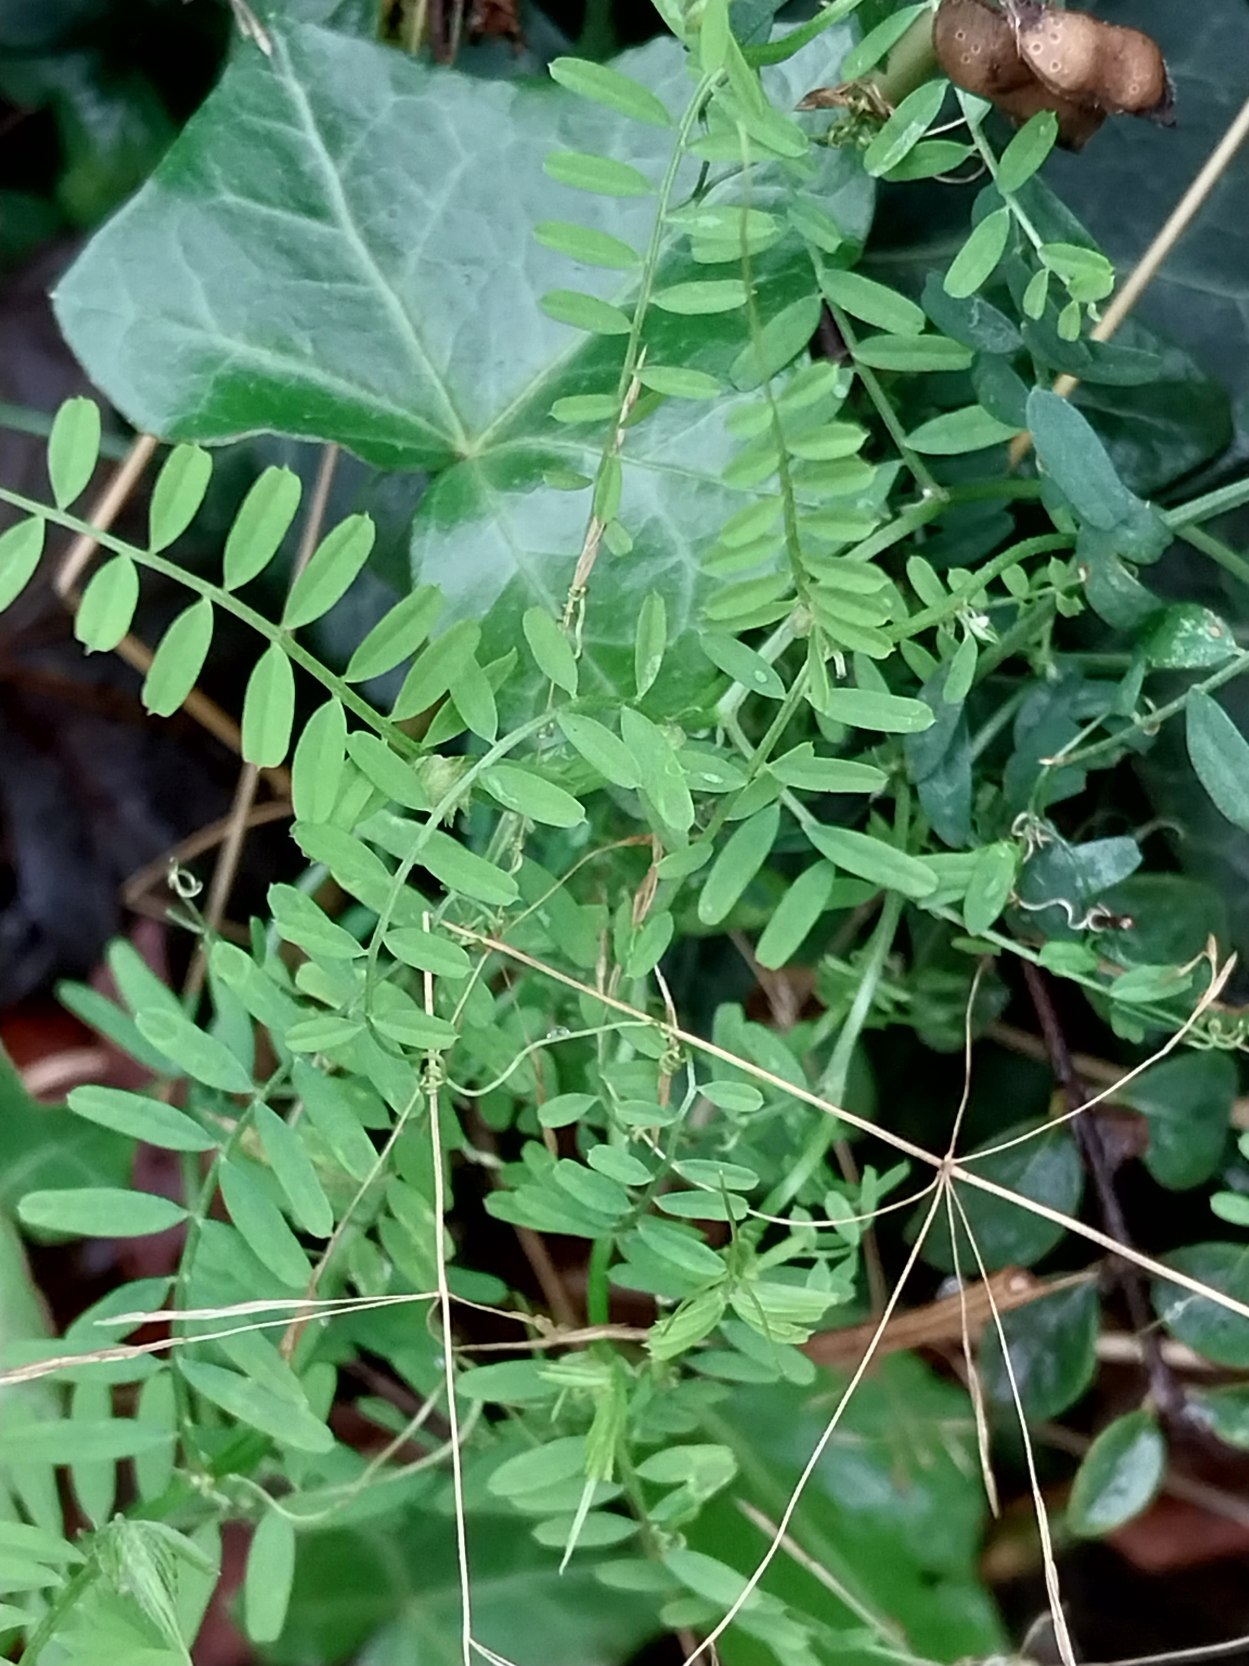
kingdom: Plantae
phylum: Tracheophyta
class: Magnoliopsida
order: Fabales
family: Fabaceae
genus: Vicia
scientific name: Vicia hirsuta
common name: Tofrøet vikke
